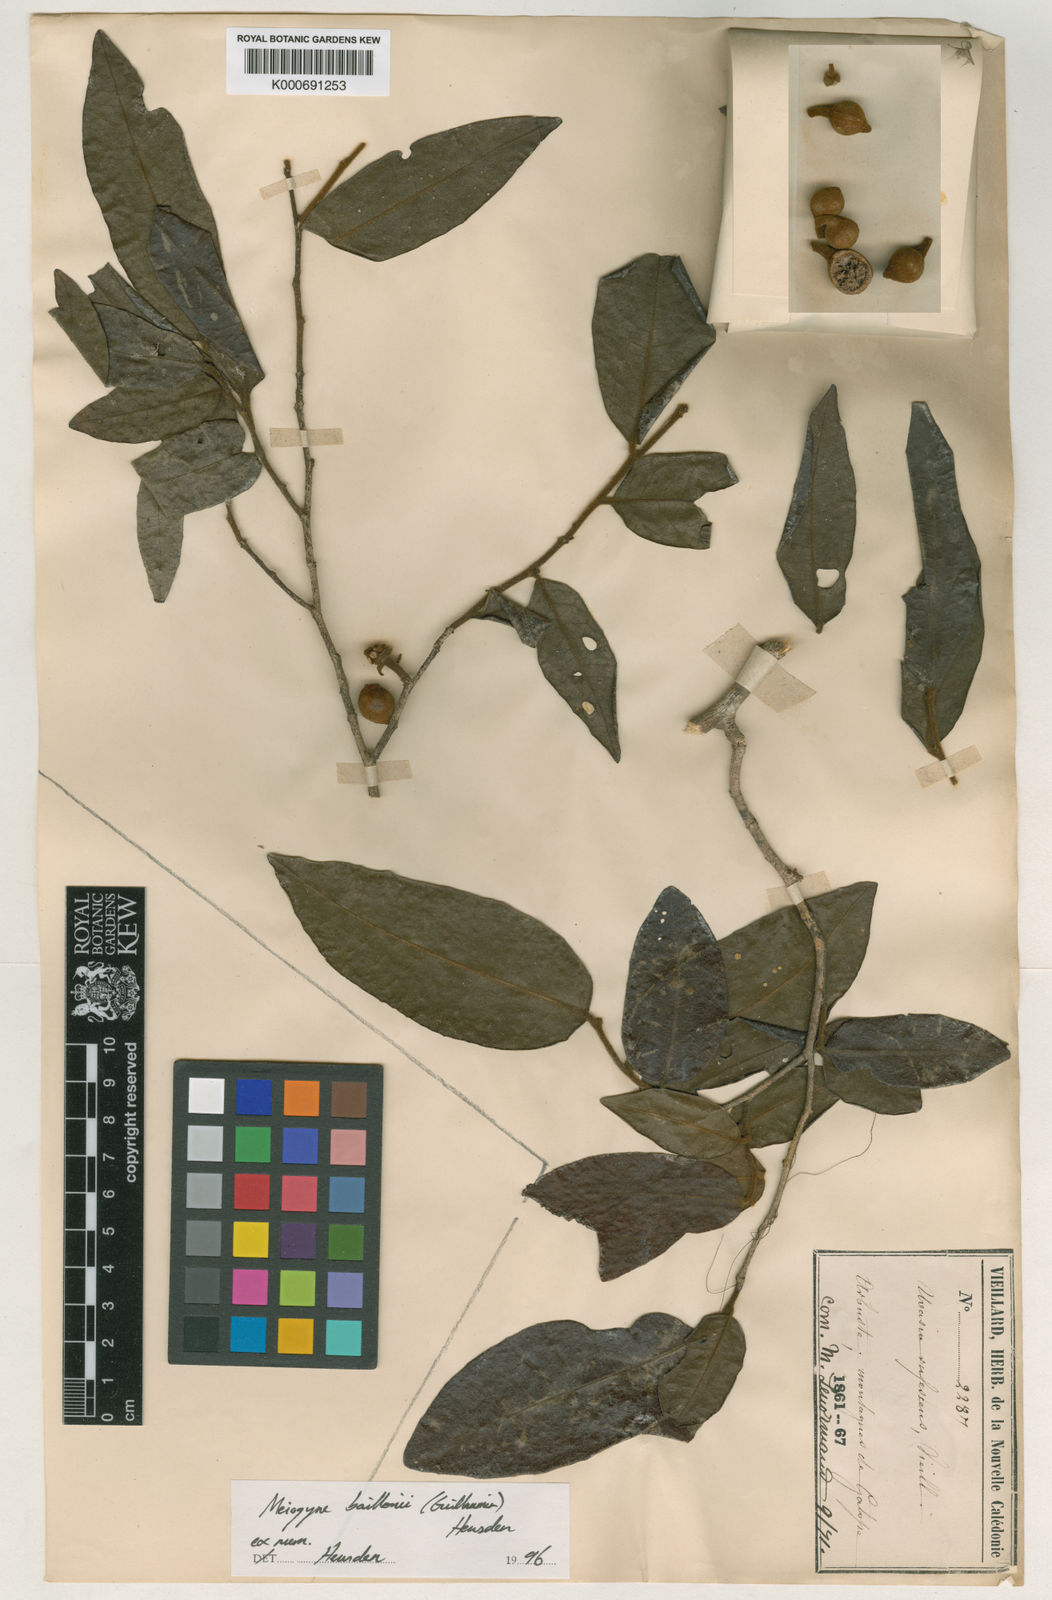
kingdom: Plantae
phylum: Tracheophyta
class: Magnoliopsida
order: Magnoliales
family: Annonaceae
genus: Meiogyne
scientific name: Meiogyne baillonii
